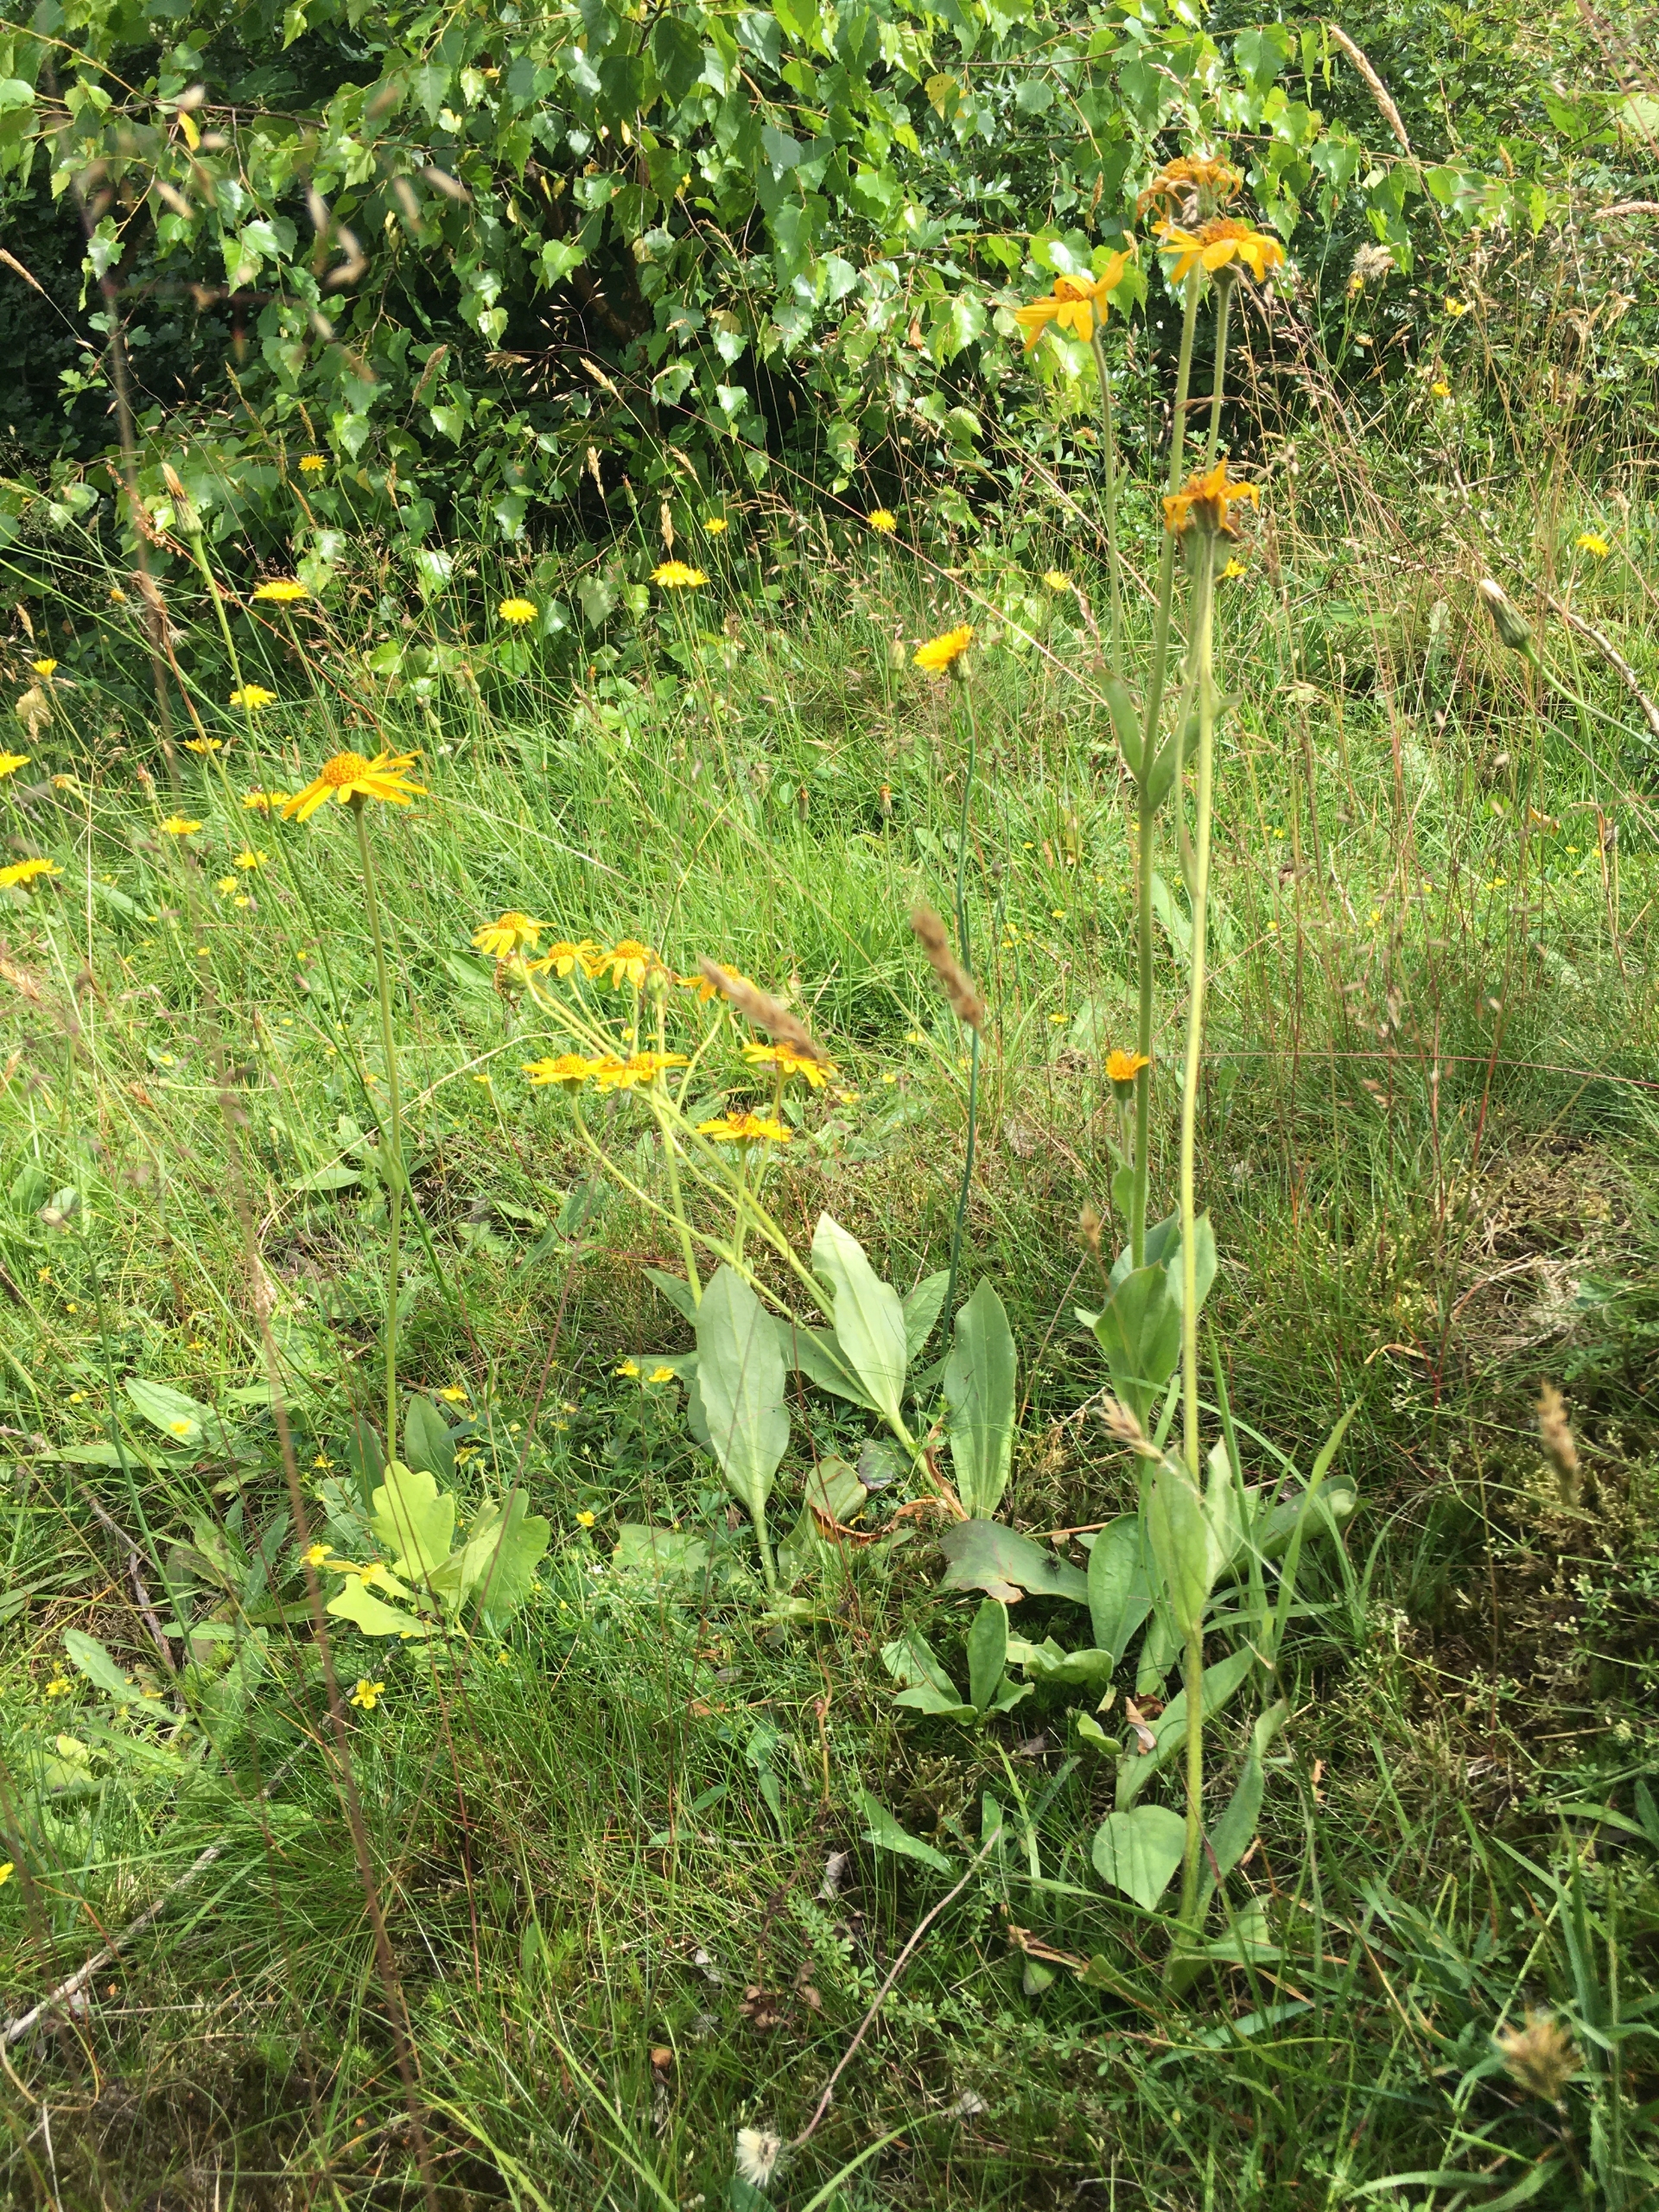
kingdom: Plantae
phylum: Tracheophyta
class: Magnoliopsida
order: Asterales
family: Asteraceae
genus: Arnica
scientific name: Arnica montana
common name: Guldblomme
